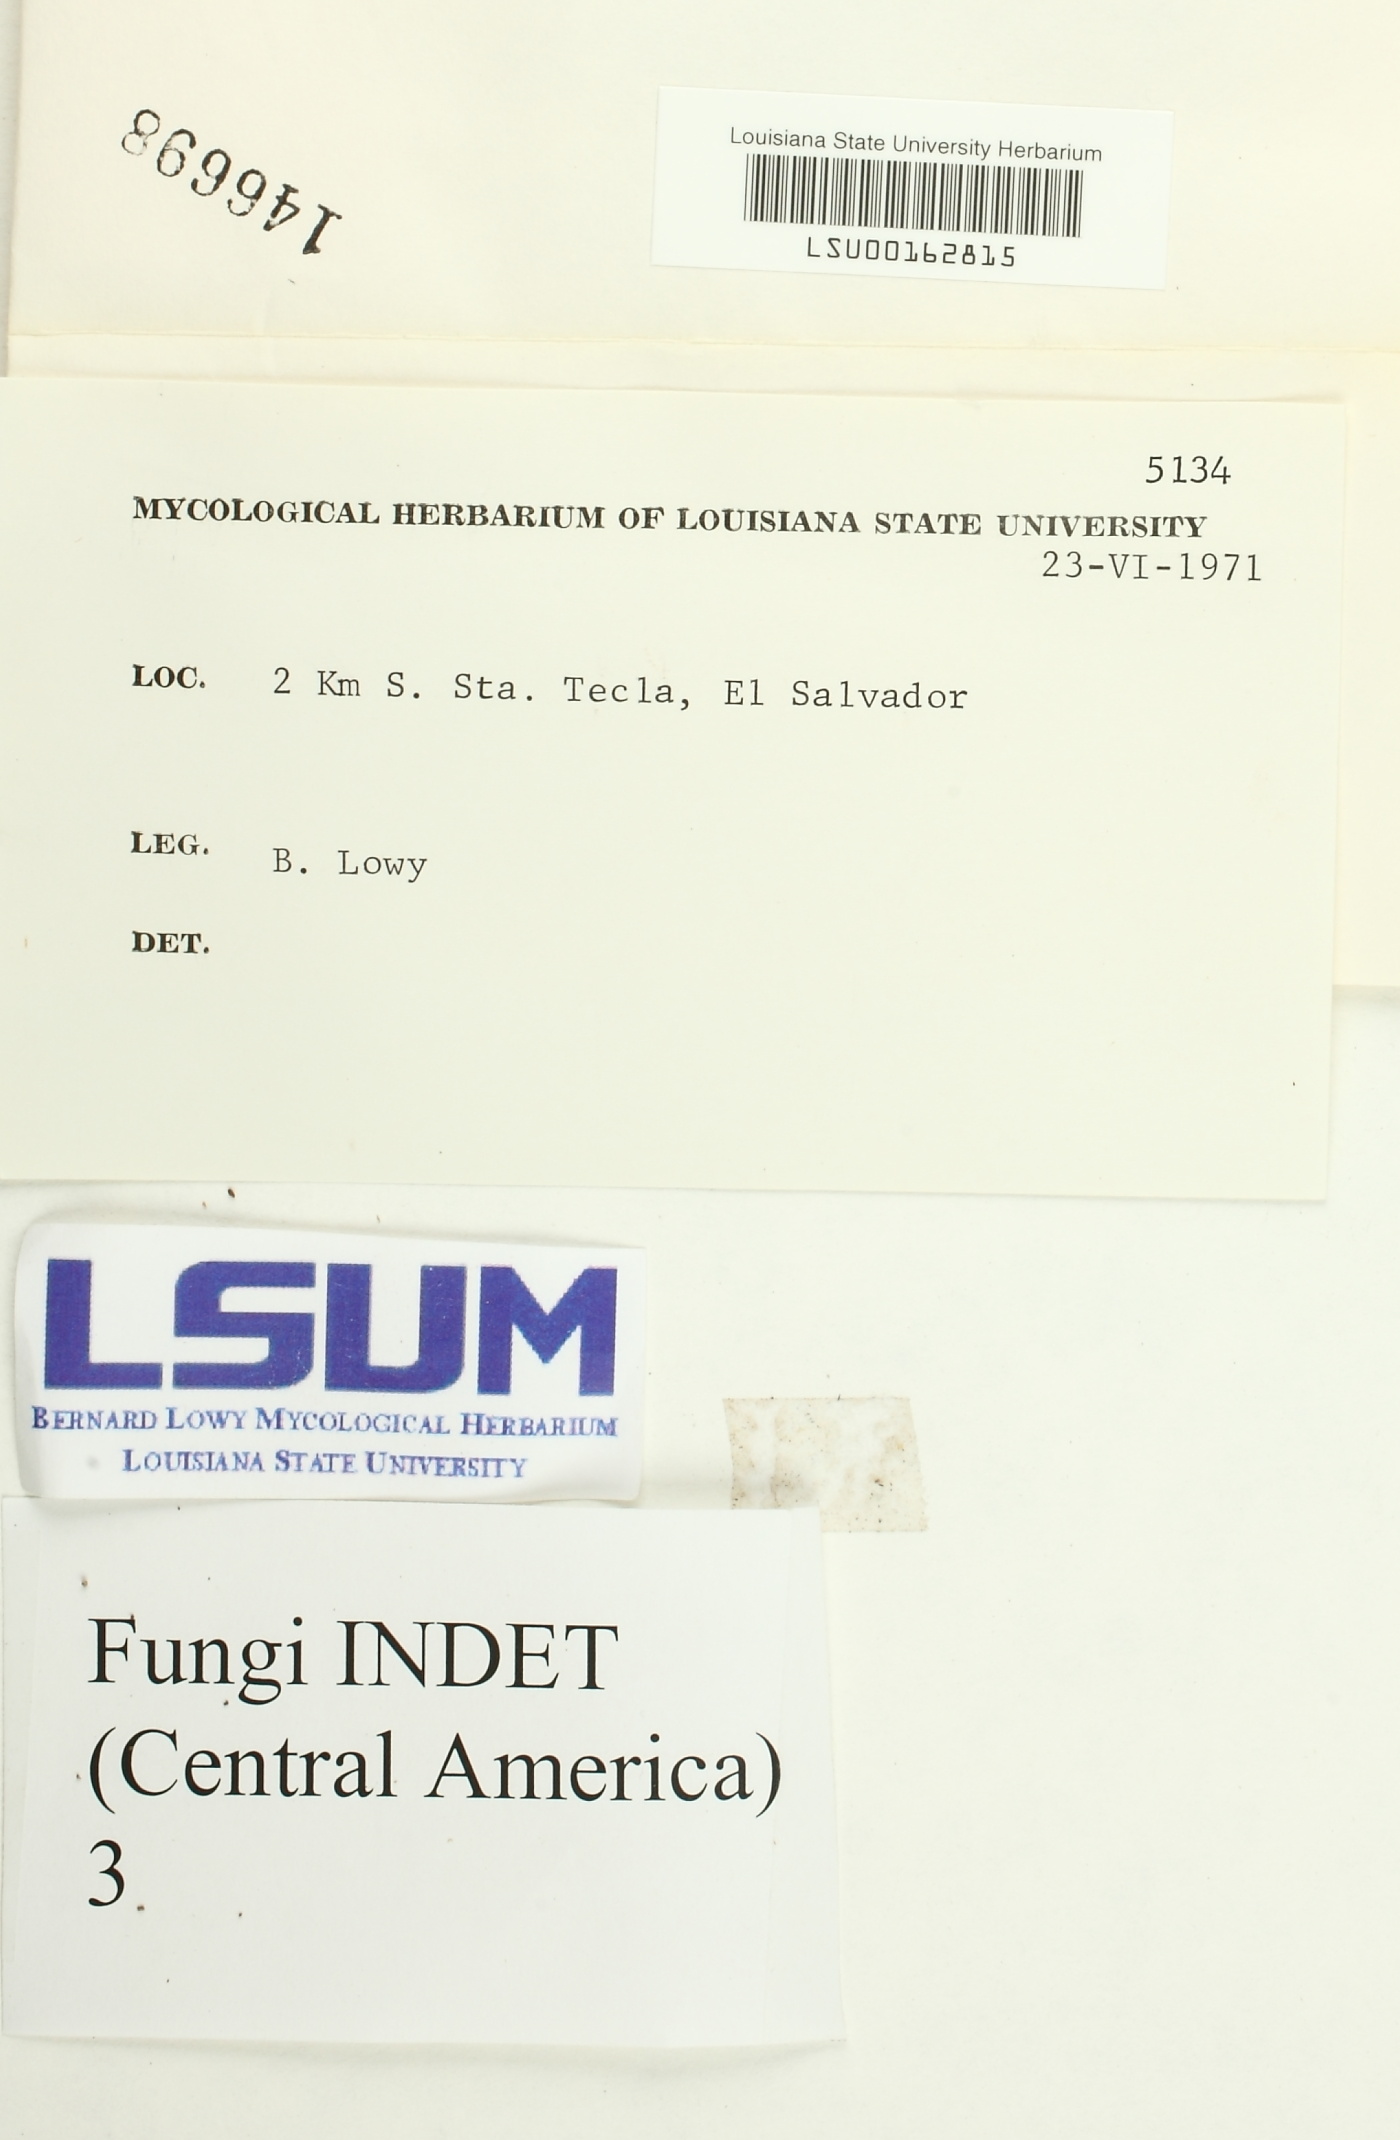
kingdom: Fungi
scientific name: Fungi
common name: Fungi
